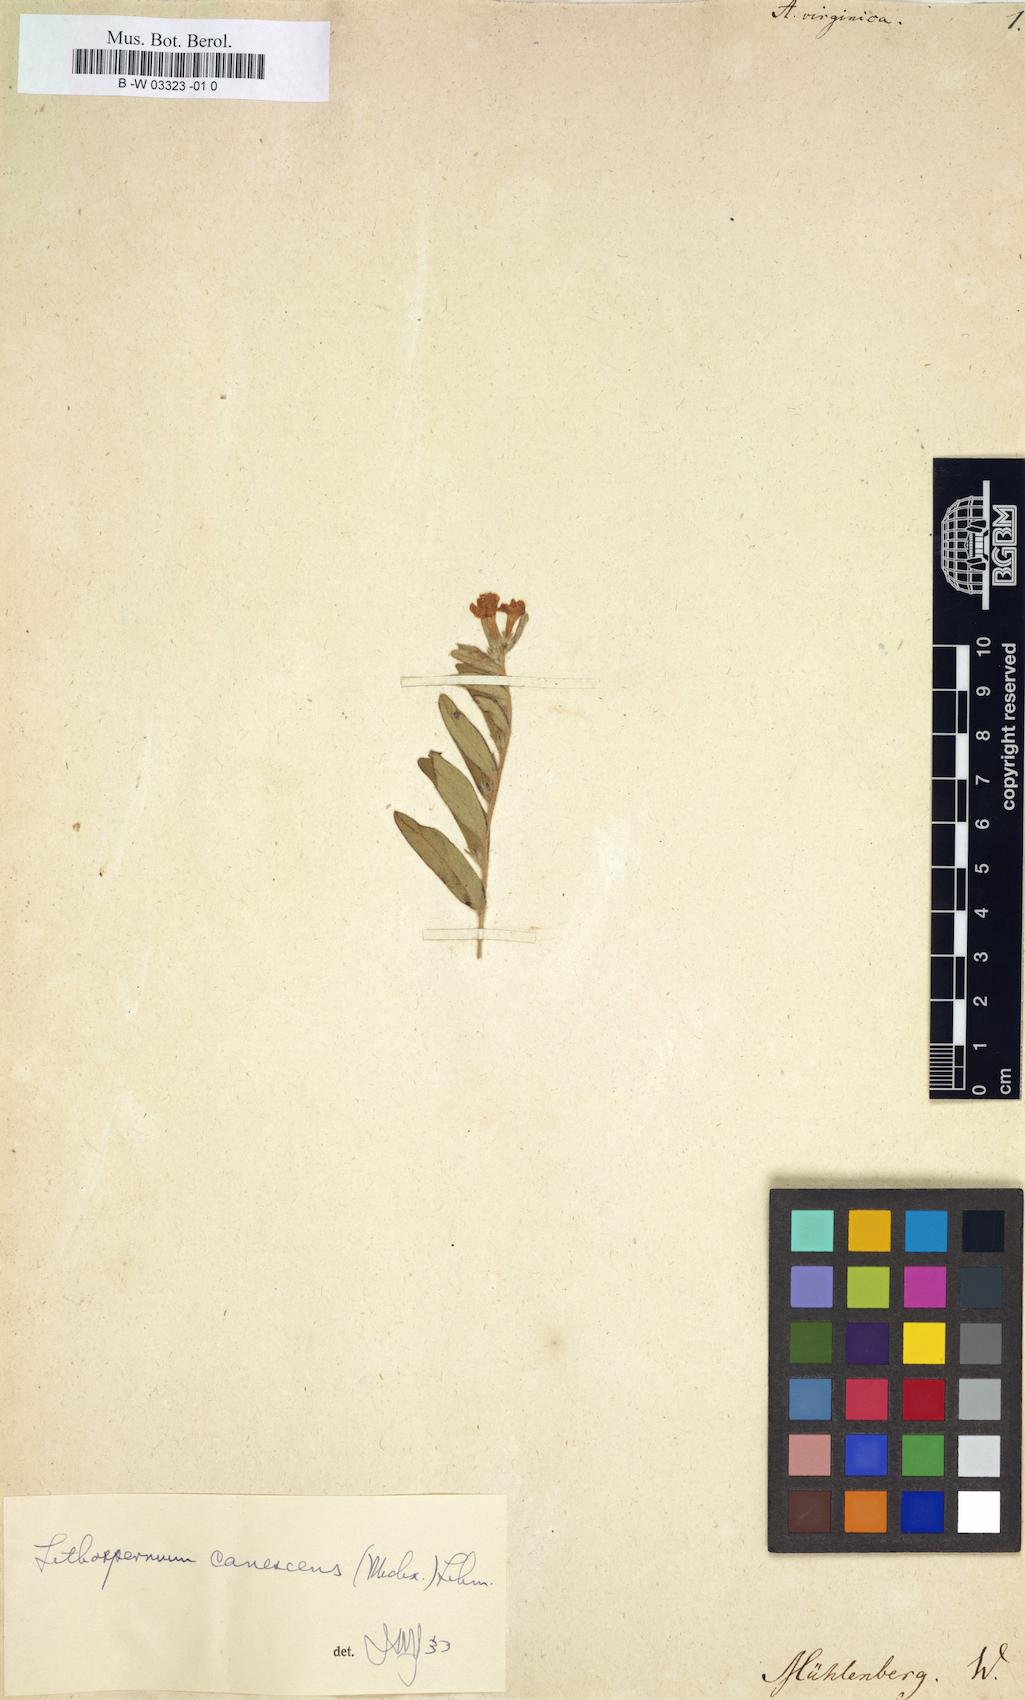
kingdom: Plantae
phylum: Tracheophyta
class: Magnoliopsida
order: Boraginales
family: Boraginaceae
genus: Lithospermum
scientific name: Lithospermum caroliniense
